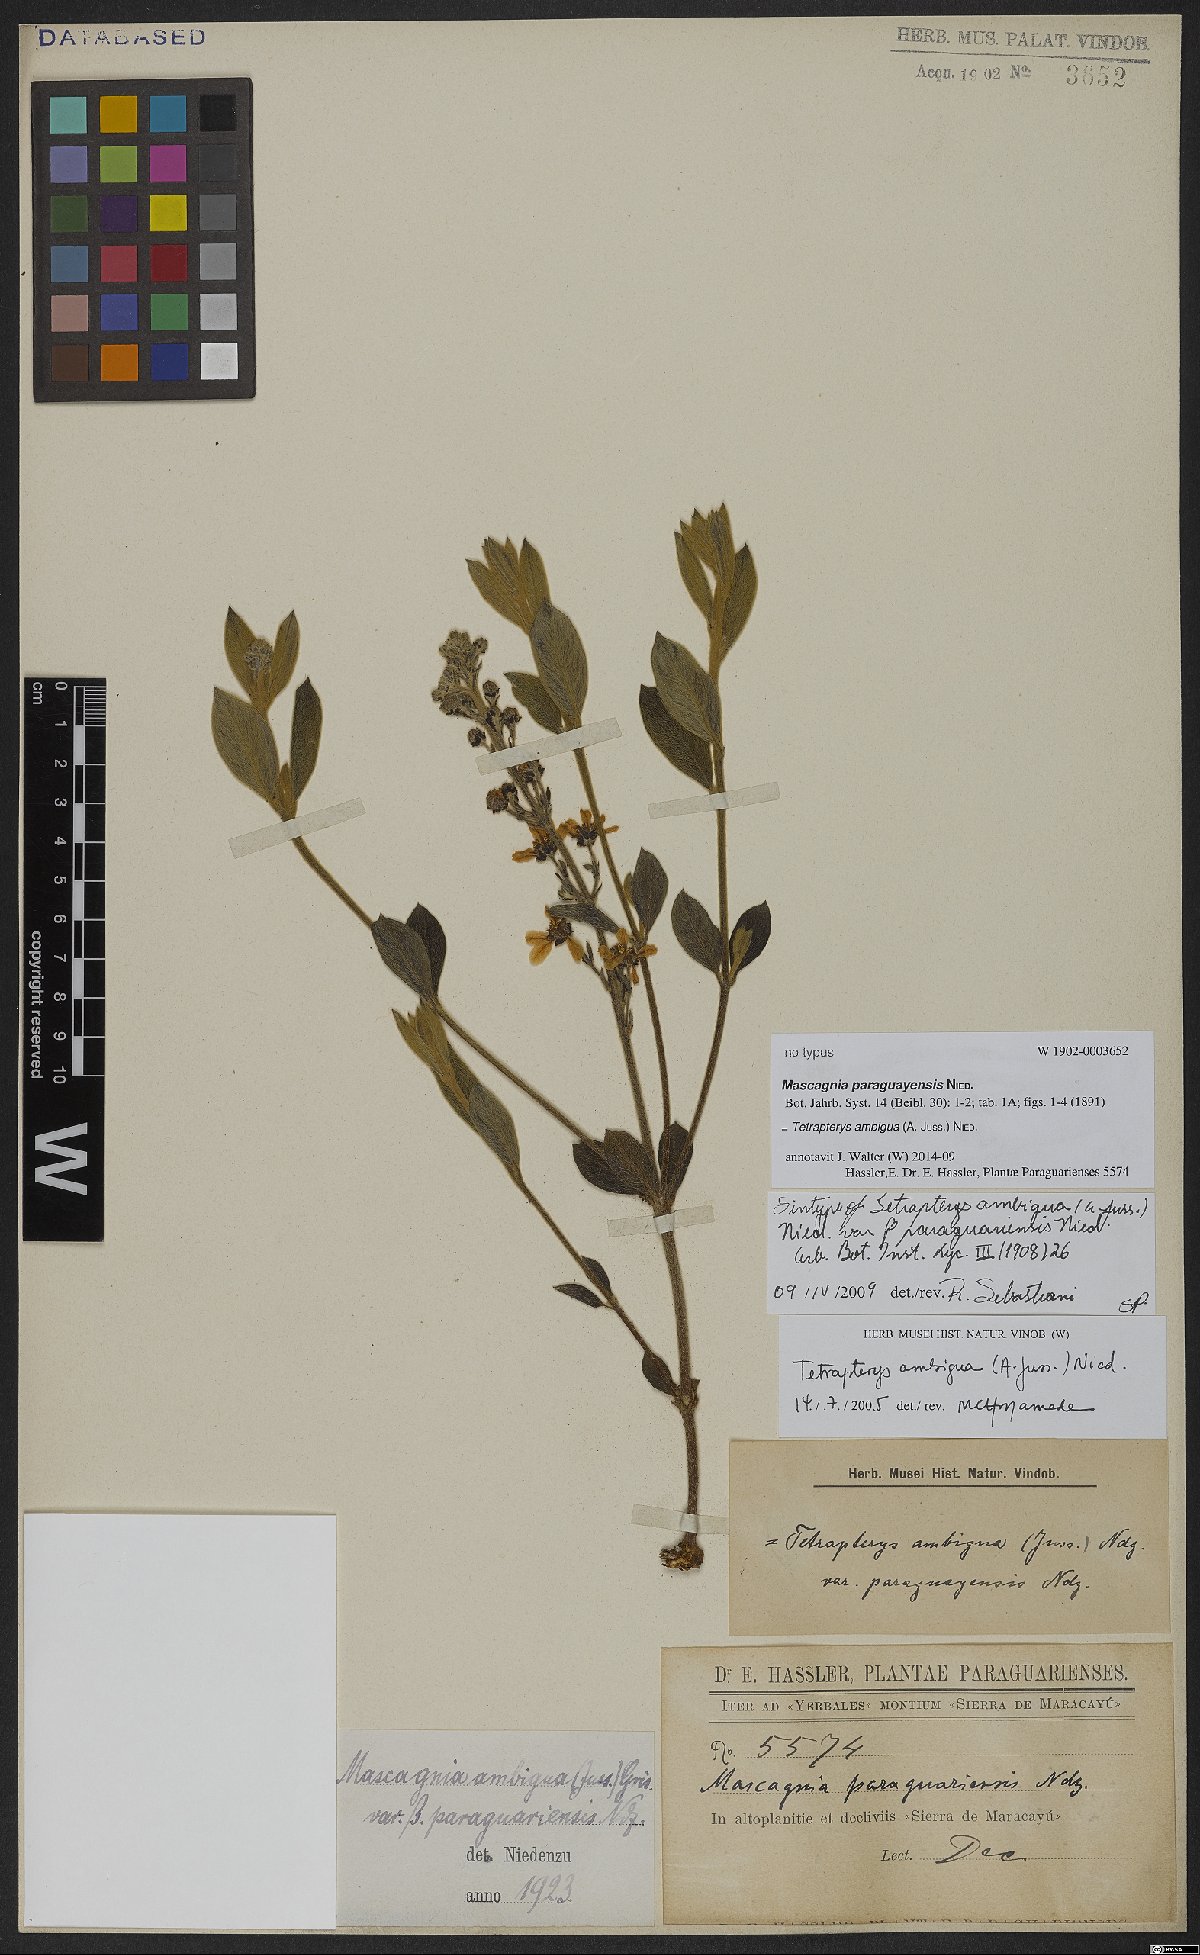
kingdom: Plantae
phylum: Tracheophyta
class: Magnoliopsida
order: Malpighiales
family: Malpighiaceae
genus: Glicophyllum
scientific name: Glicophyllum ambiguum
